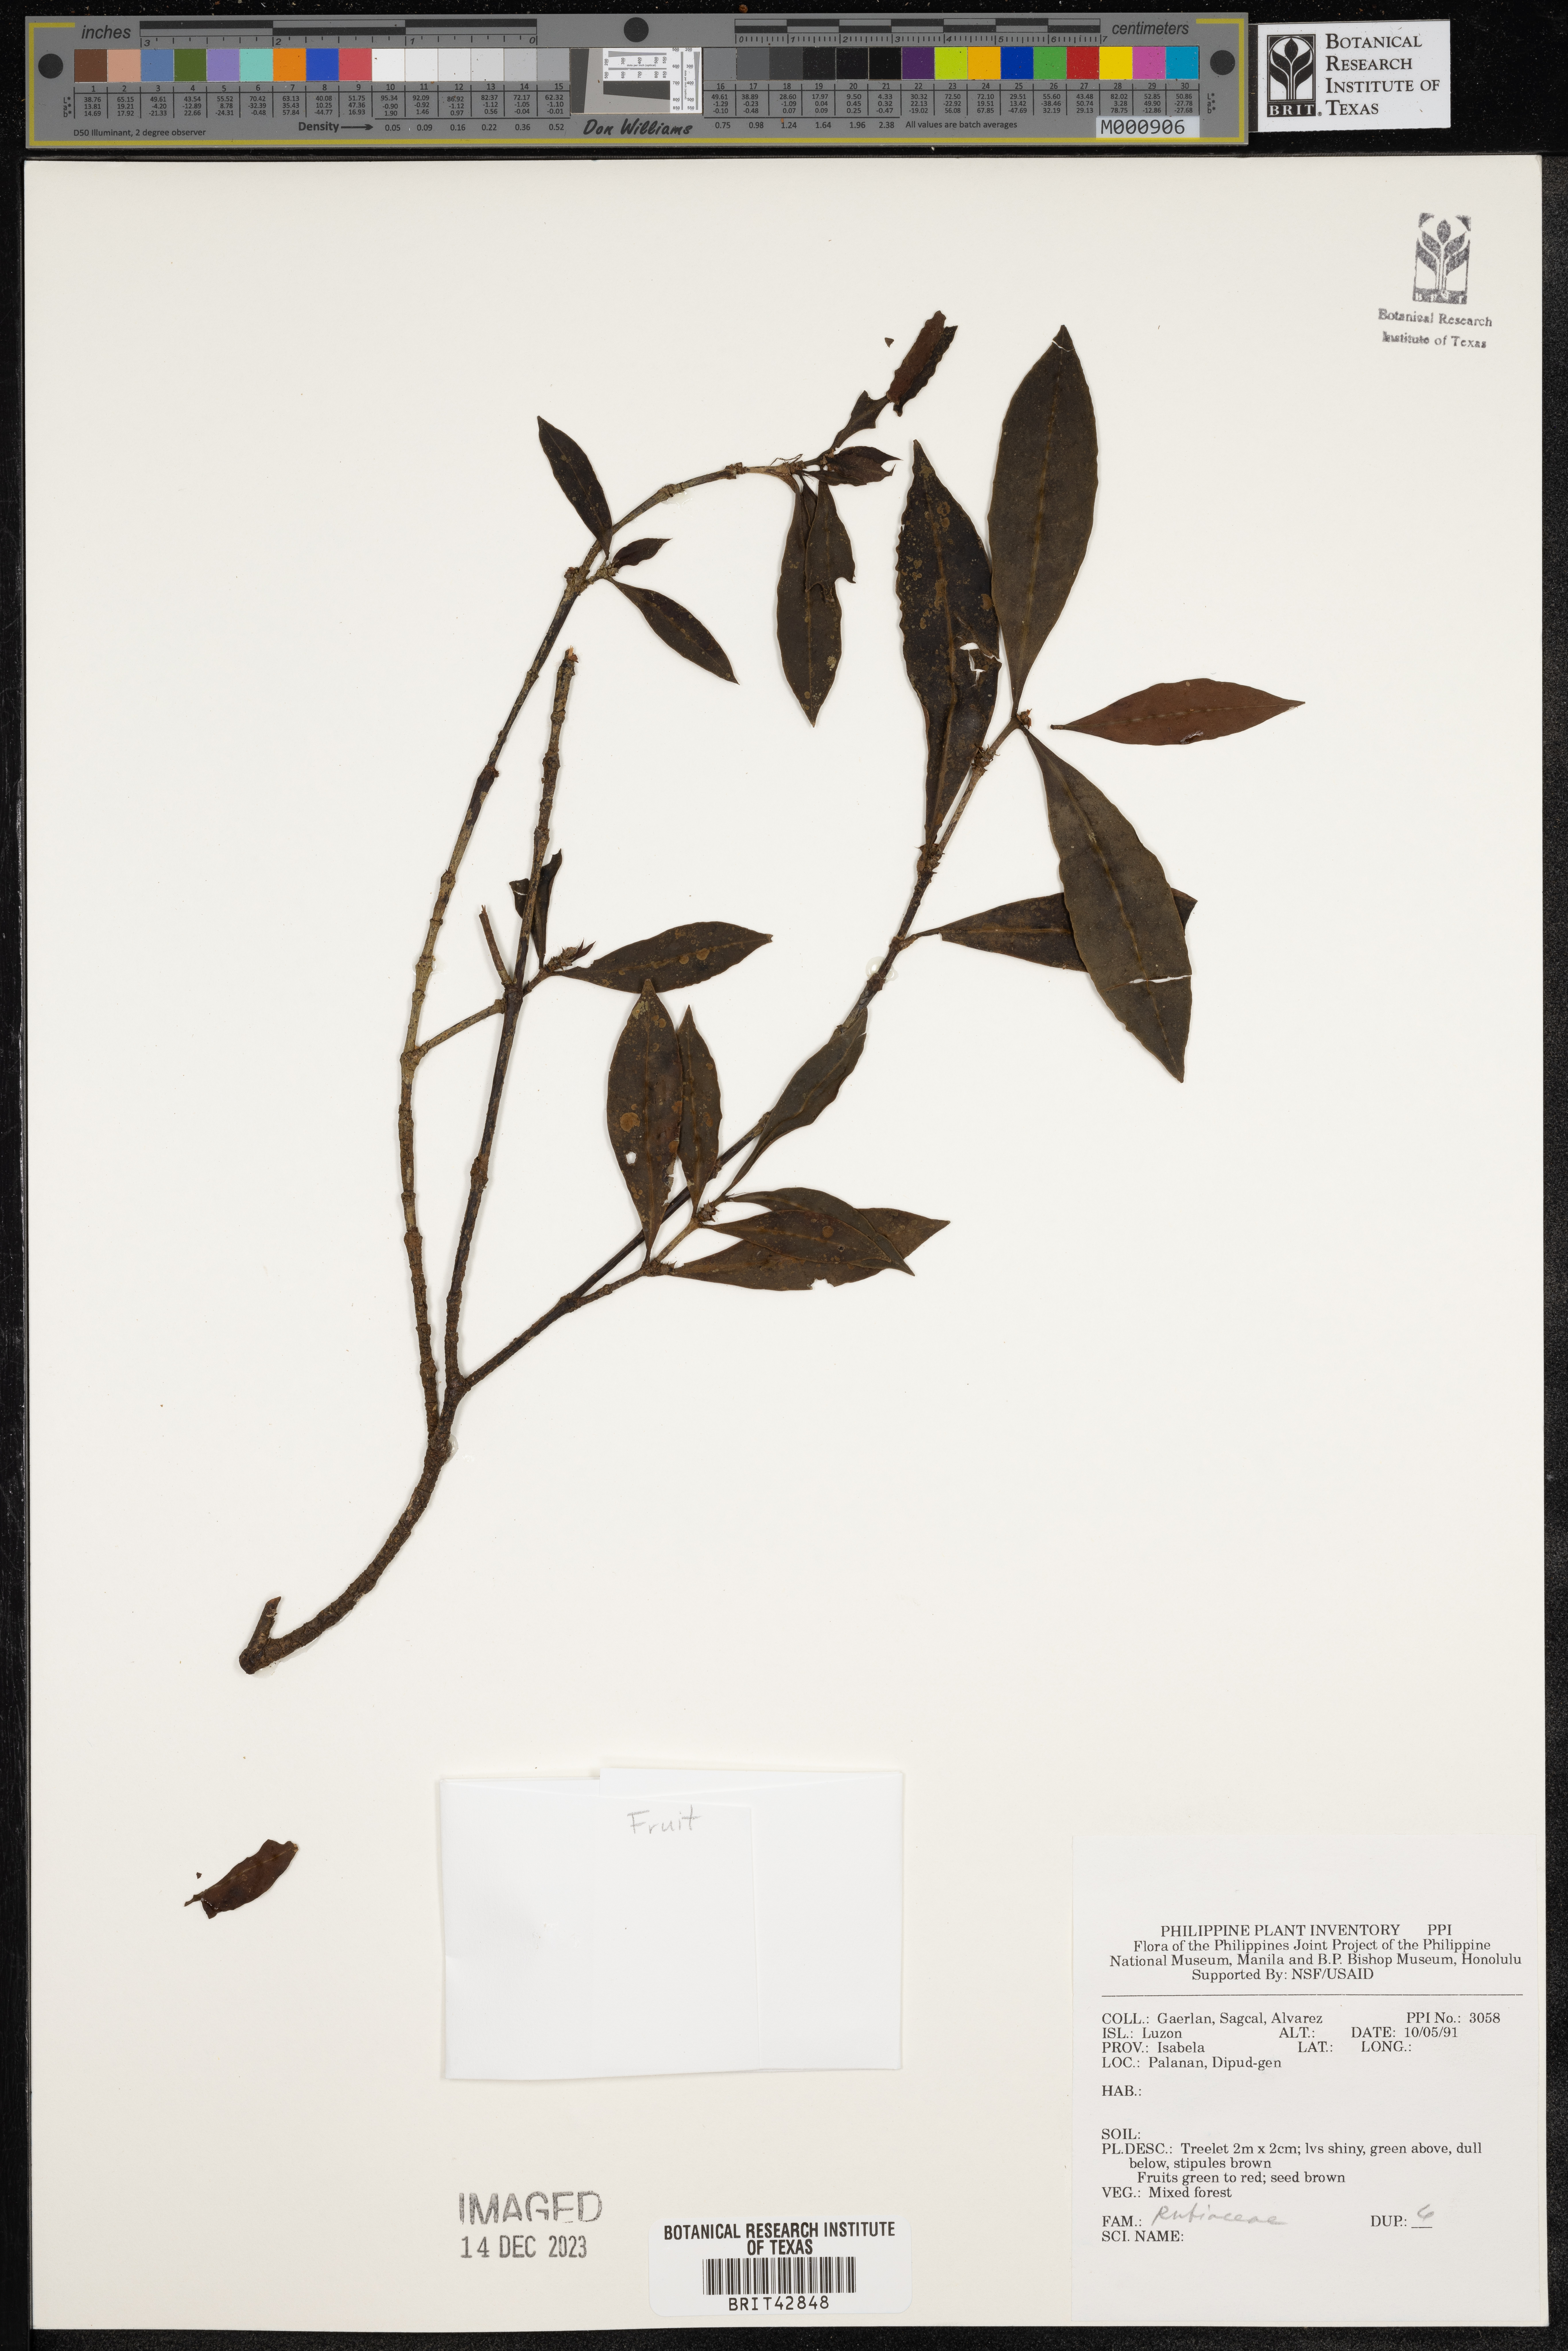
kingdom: Plantae
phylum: Tracheophyta
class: Magnoliopsida
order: Gentianales
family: Rubiaceae
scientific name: Rubiaceae
